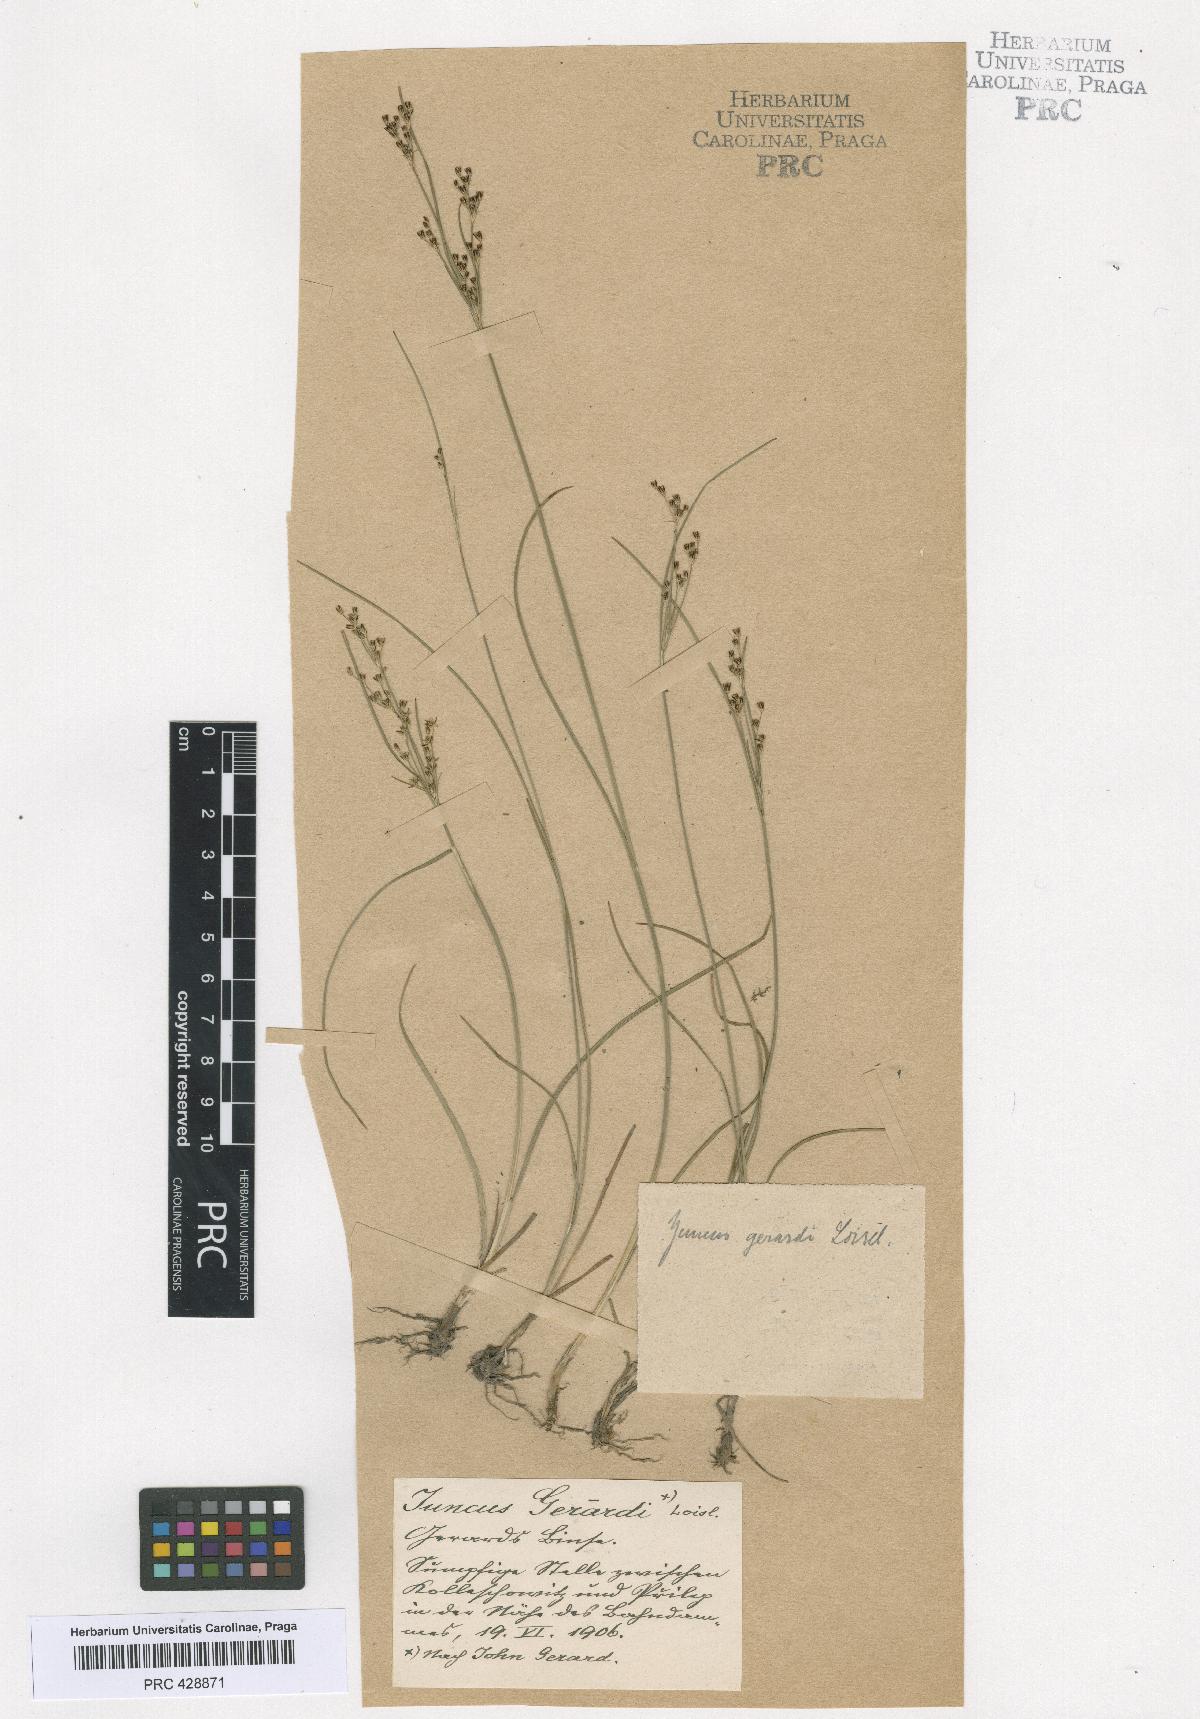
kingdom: Plantae
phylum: Tracheophyta
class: Liliopsida
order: Poales
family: Juncaceae
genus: Juncus
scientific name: Juncus compressus
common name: Round-fruited rush
